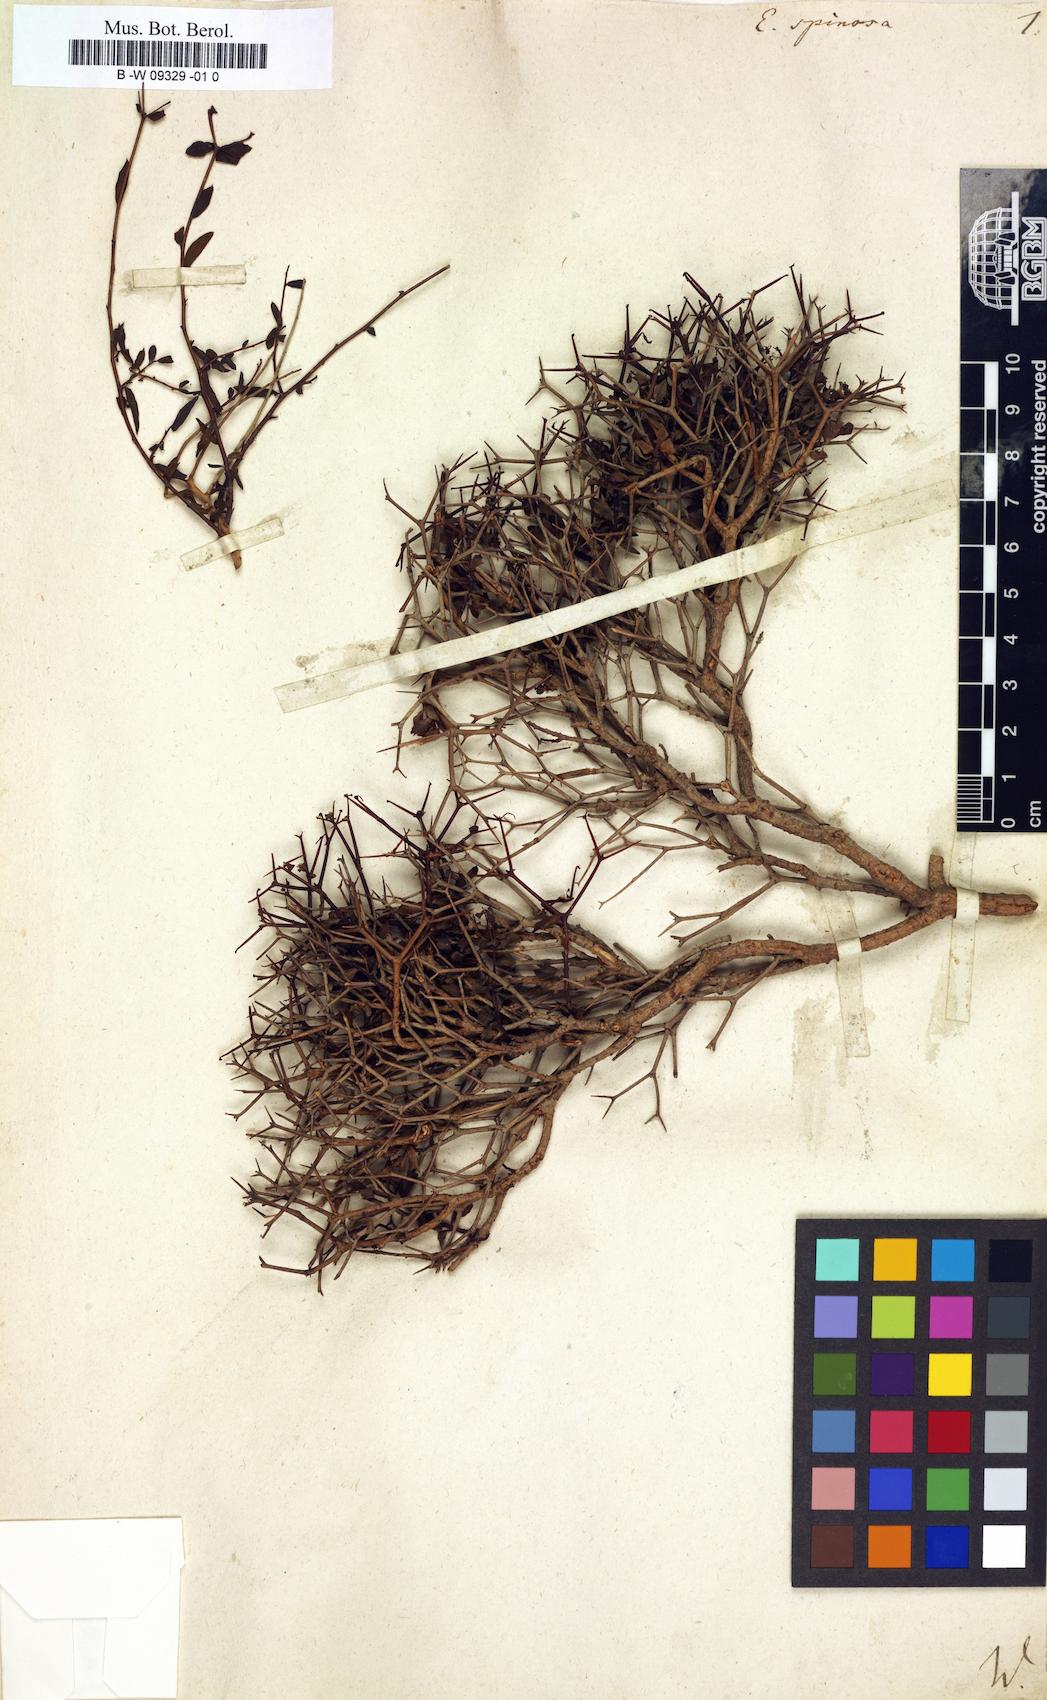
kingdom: Plantae
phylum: Tracheophyta
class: Magnoliopsida
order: Malpighiales
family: Euphorbiaceae
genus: Euphorbia
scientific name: Euphorbia spinosa
